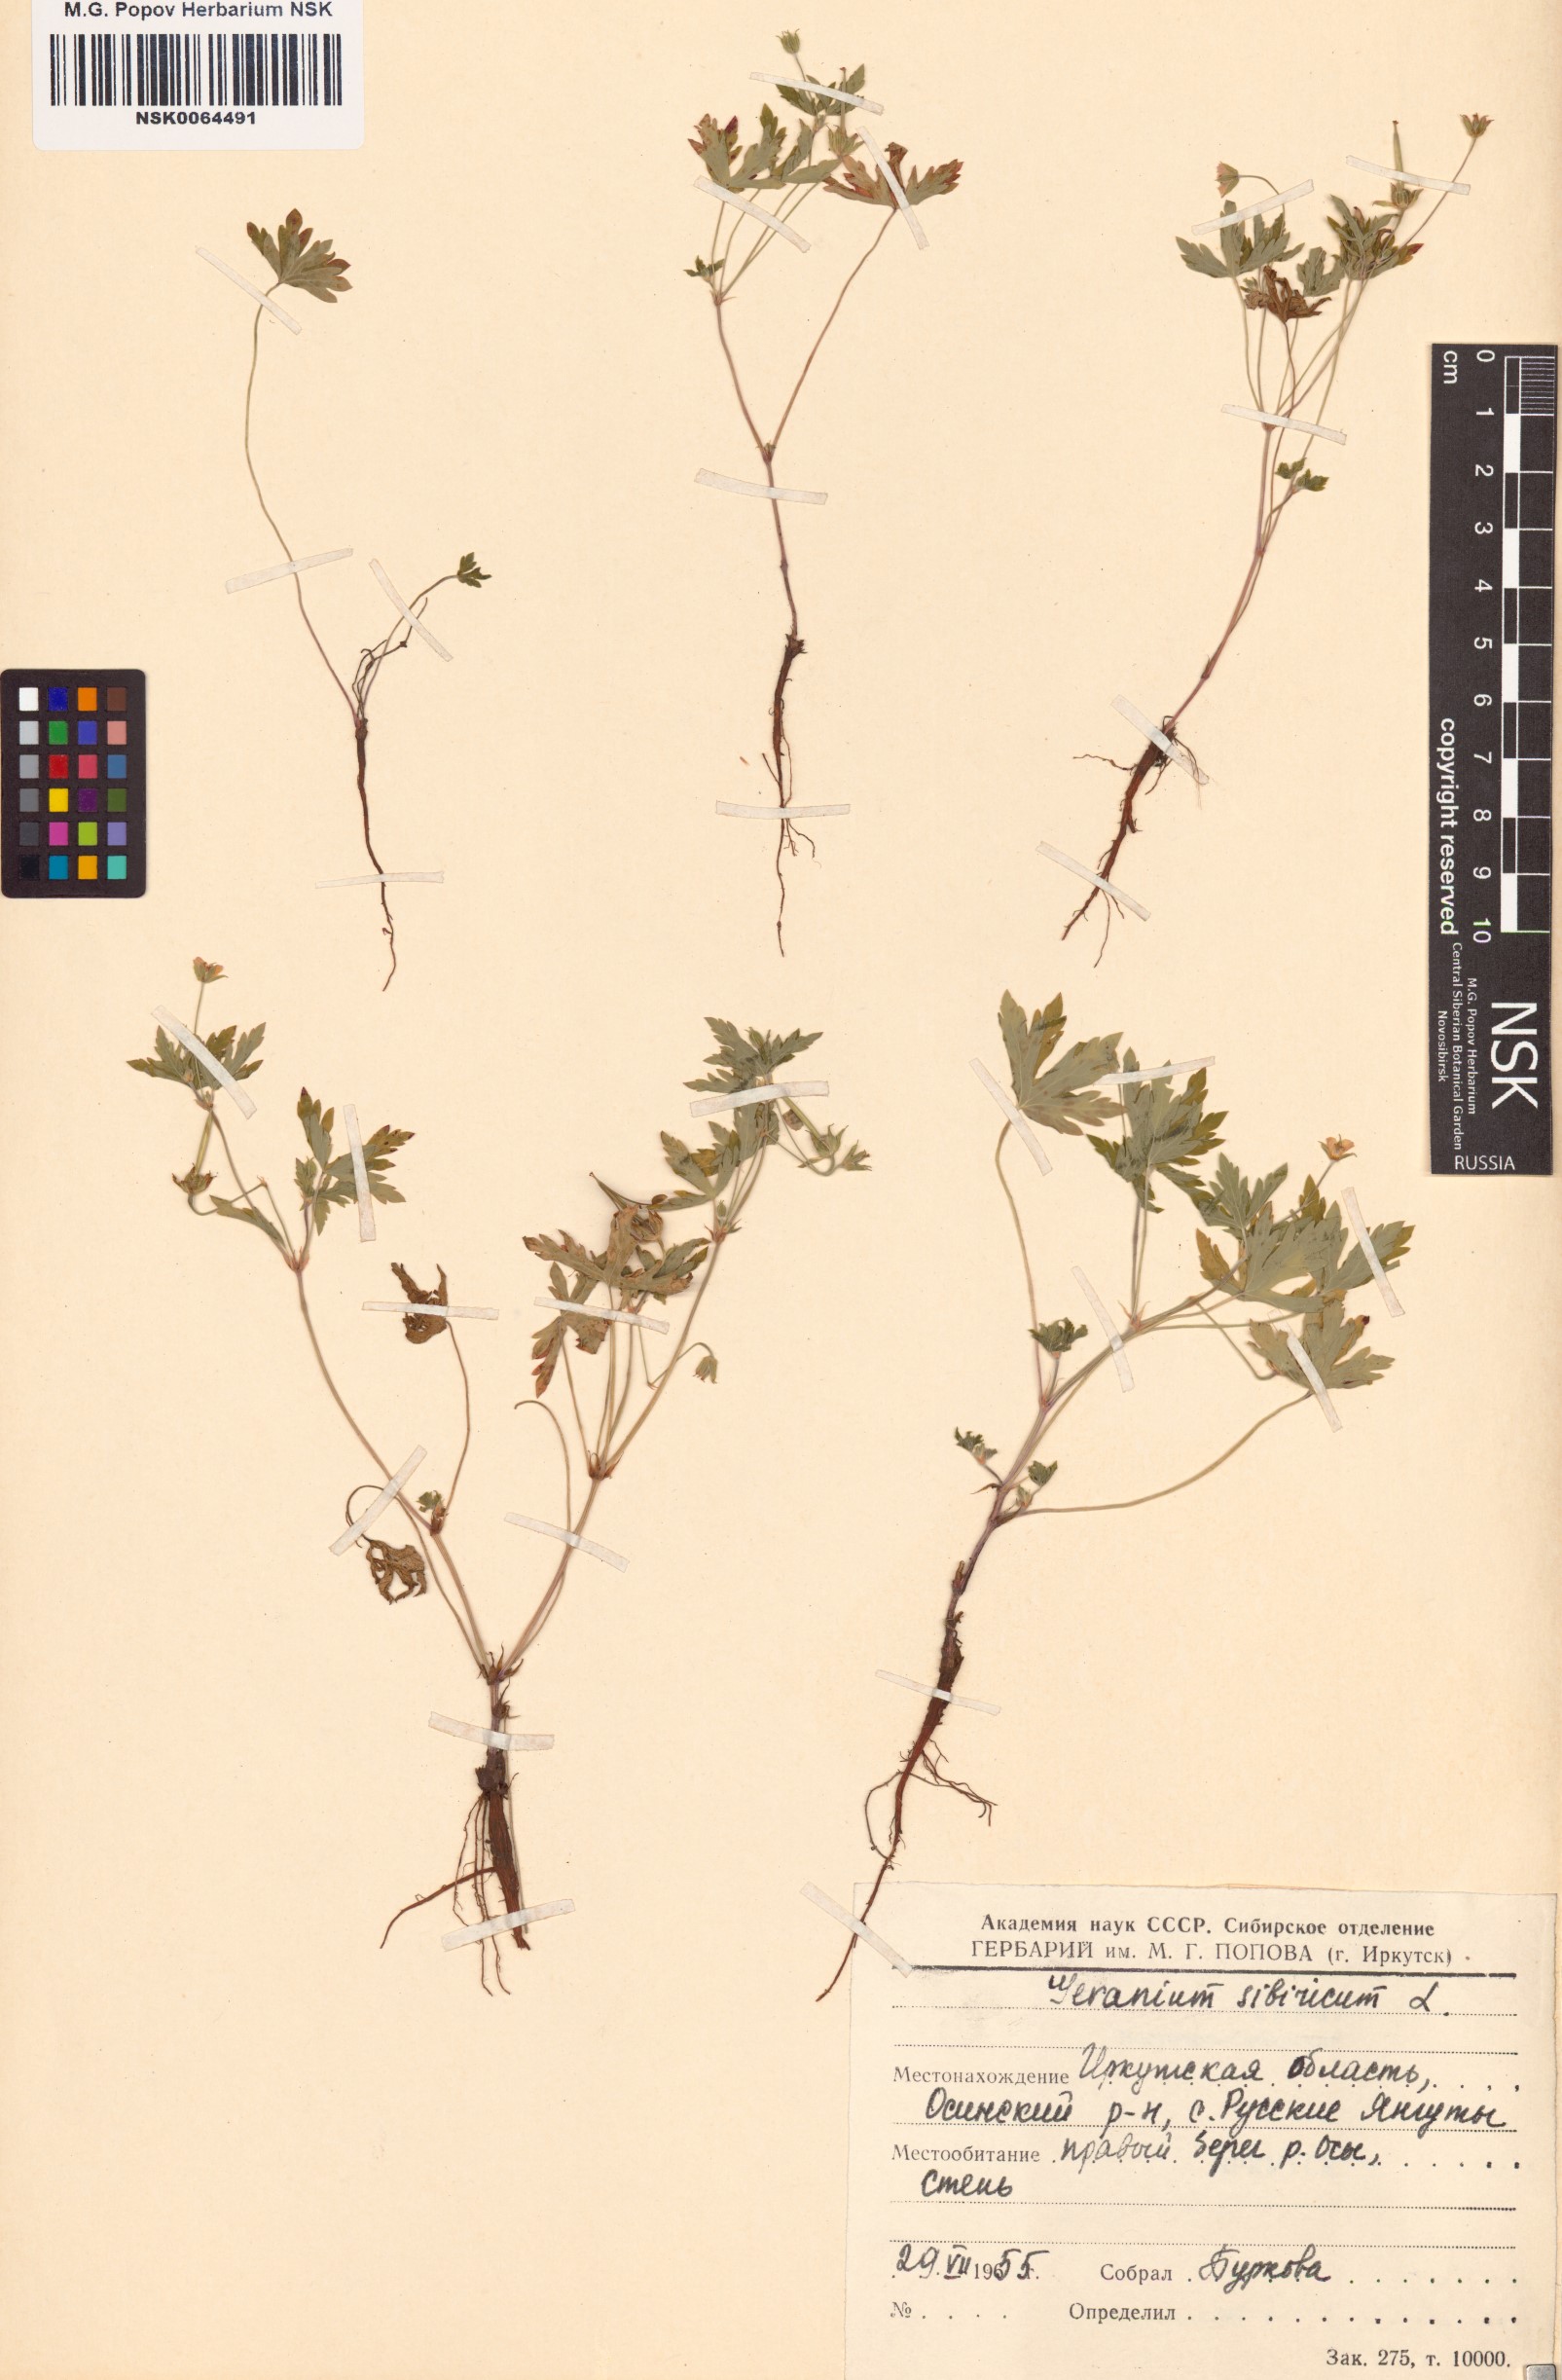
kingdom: Plantae
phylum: Tracheophyta
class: Magnoliopsida
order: Geraniales
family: Geraniaceae
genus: Geranium
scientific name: Geranium sibiricum
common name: Siberian crane's-bill
